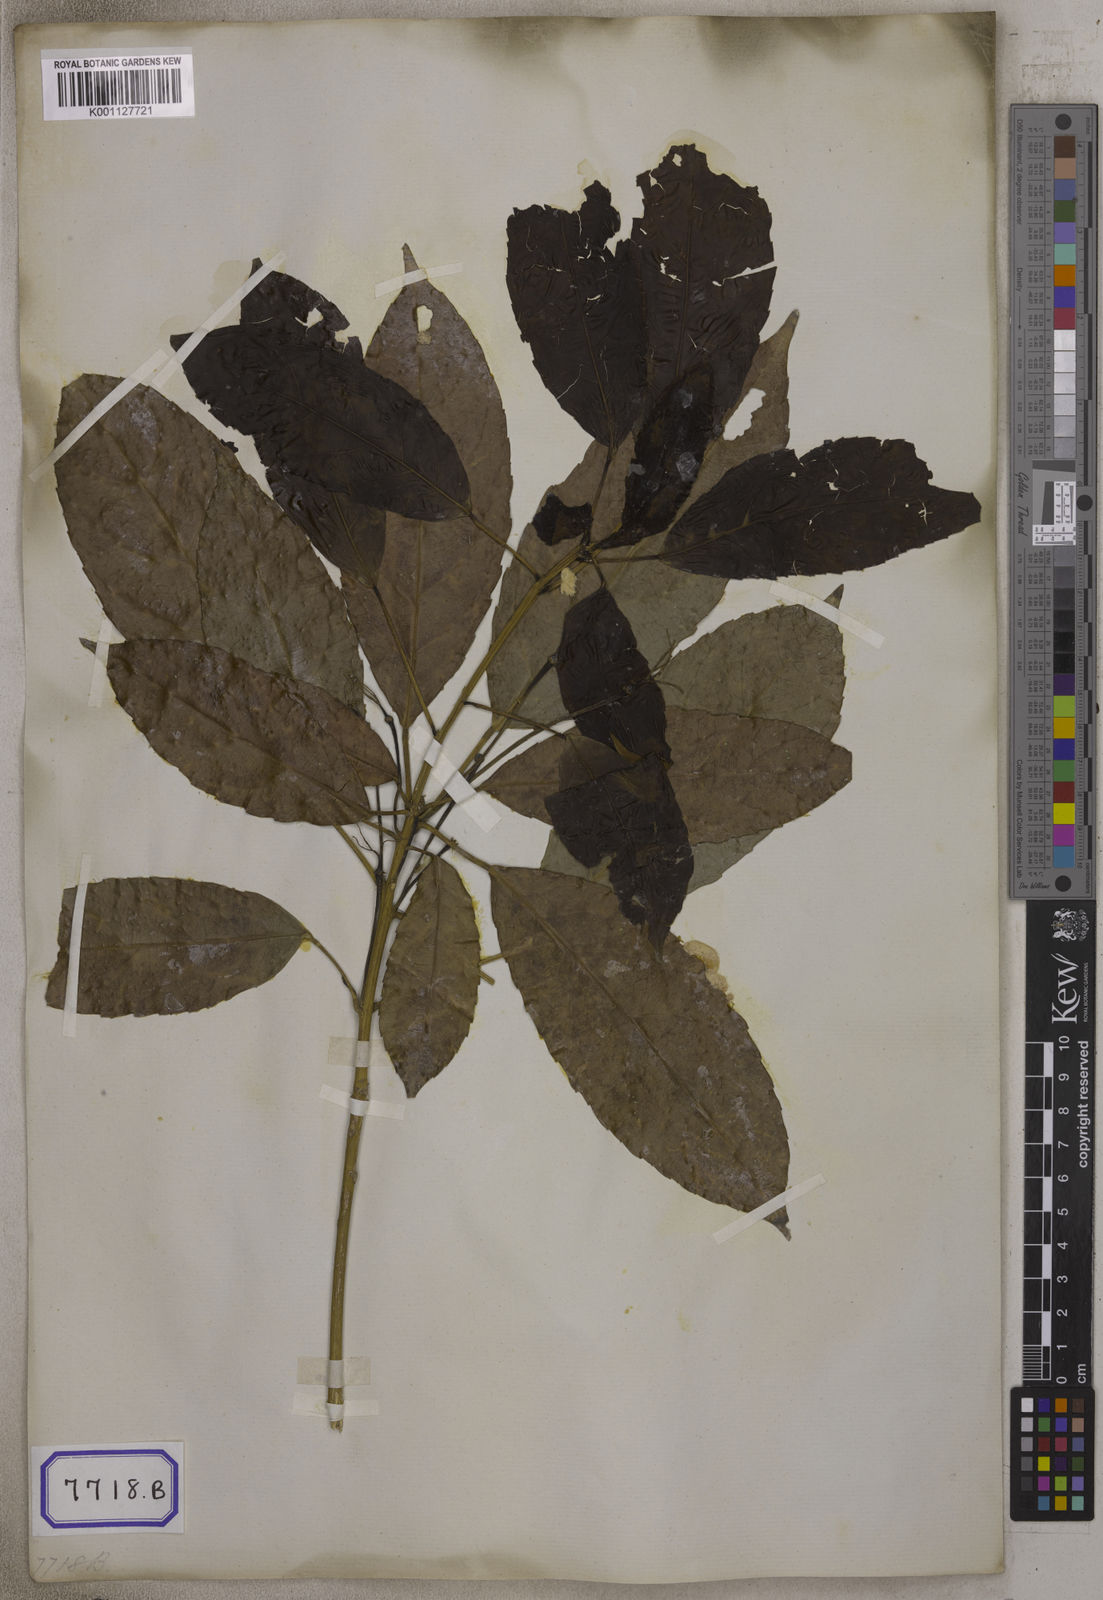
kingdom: Plantae
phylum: Tracheophyta
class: Magnoliopsida
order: Malpighiales
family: Euphorbiaceae
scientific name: Euphorbiaceae
